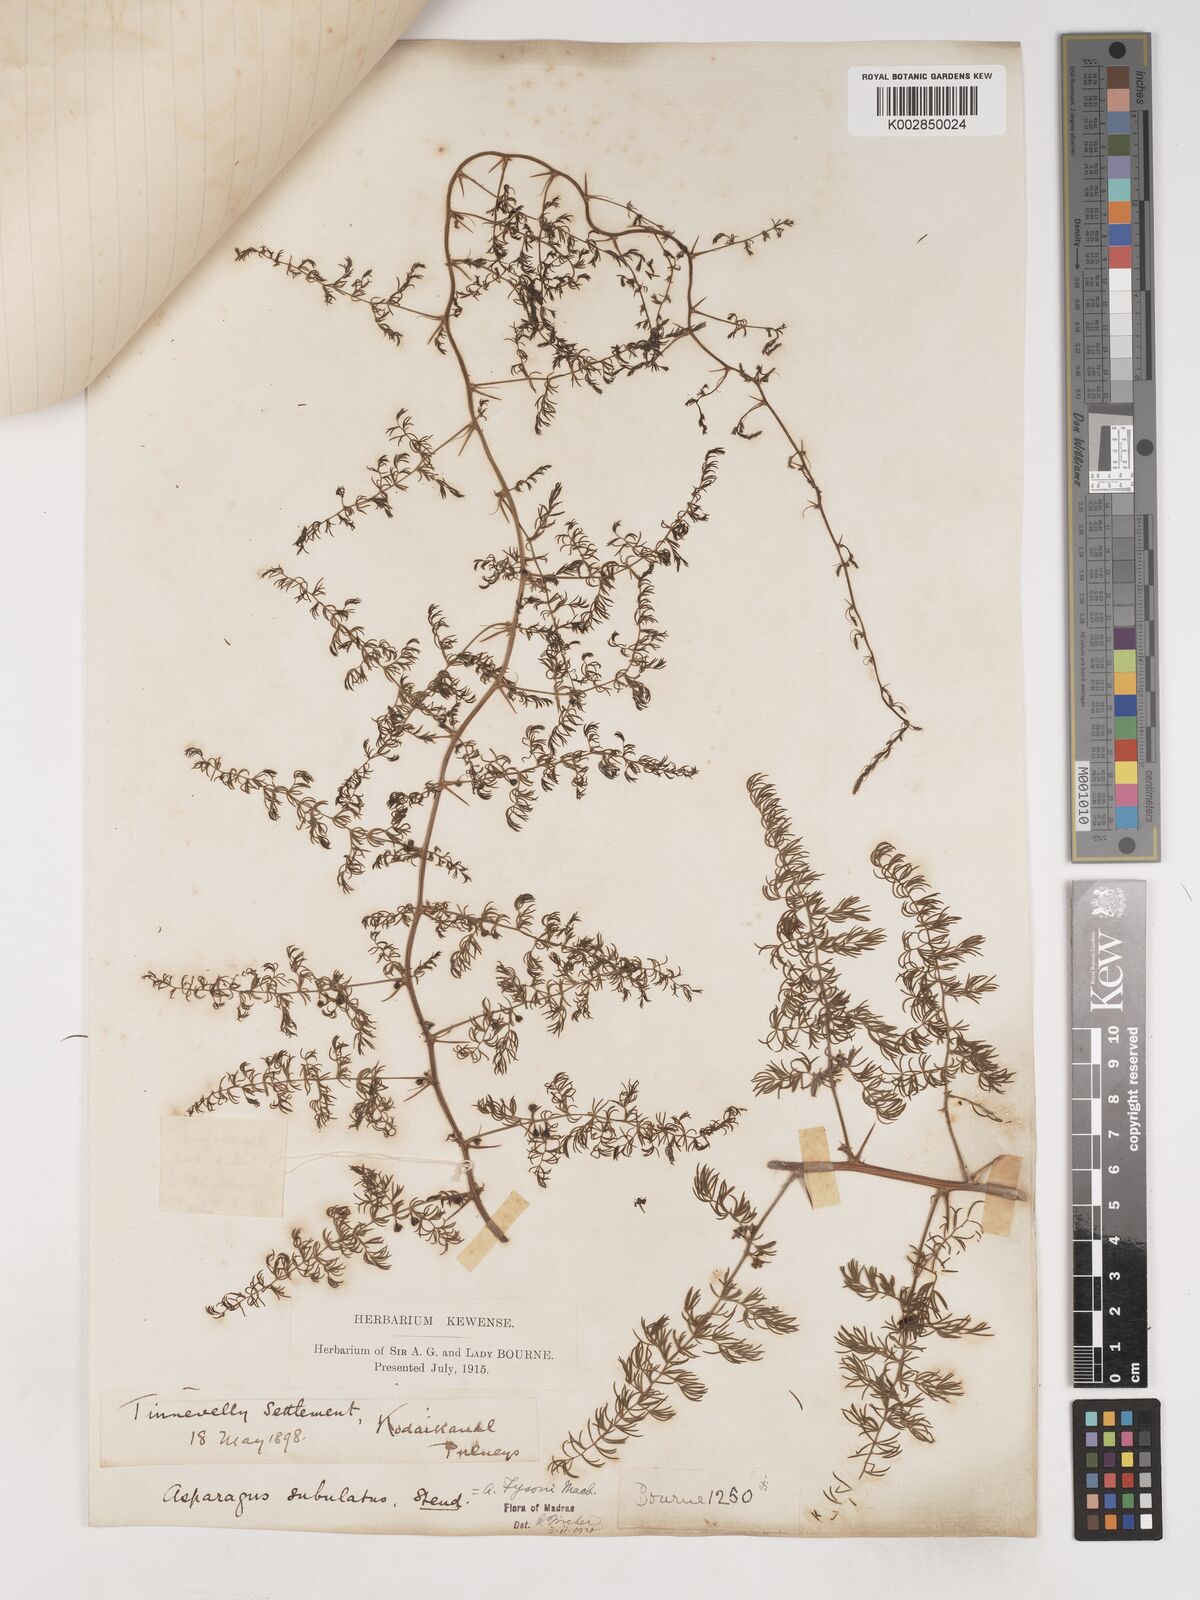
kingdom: Plantae
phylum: Tracheophyta
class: Liliopsida
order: Asparagales
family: Asparagaceae
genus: Asparagus
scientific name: Asparagus fysonii
